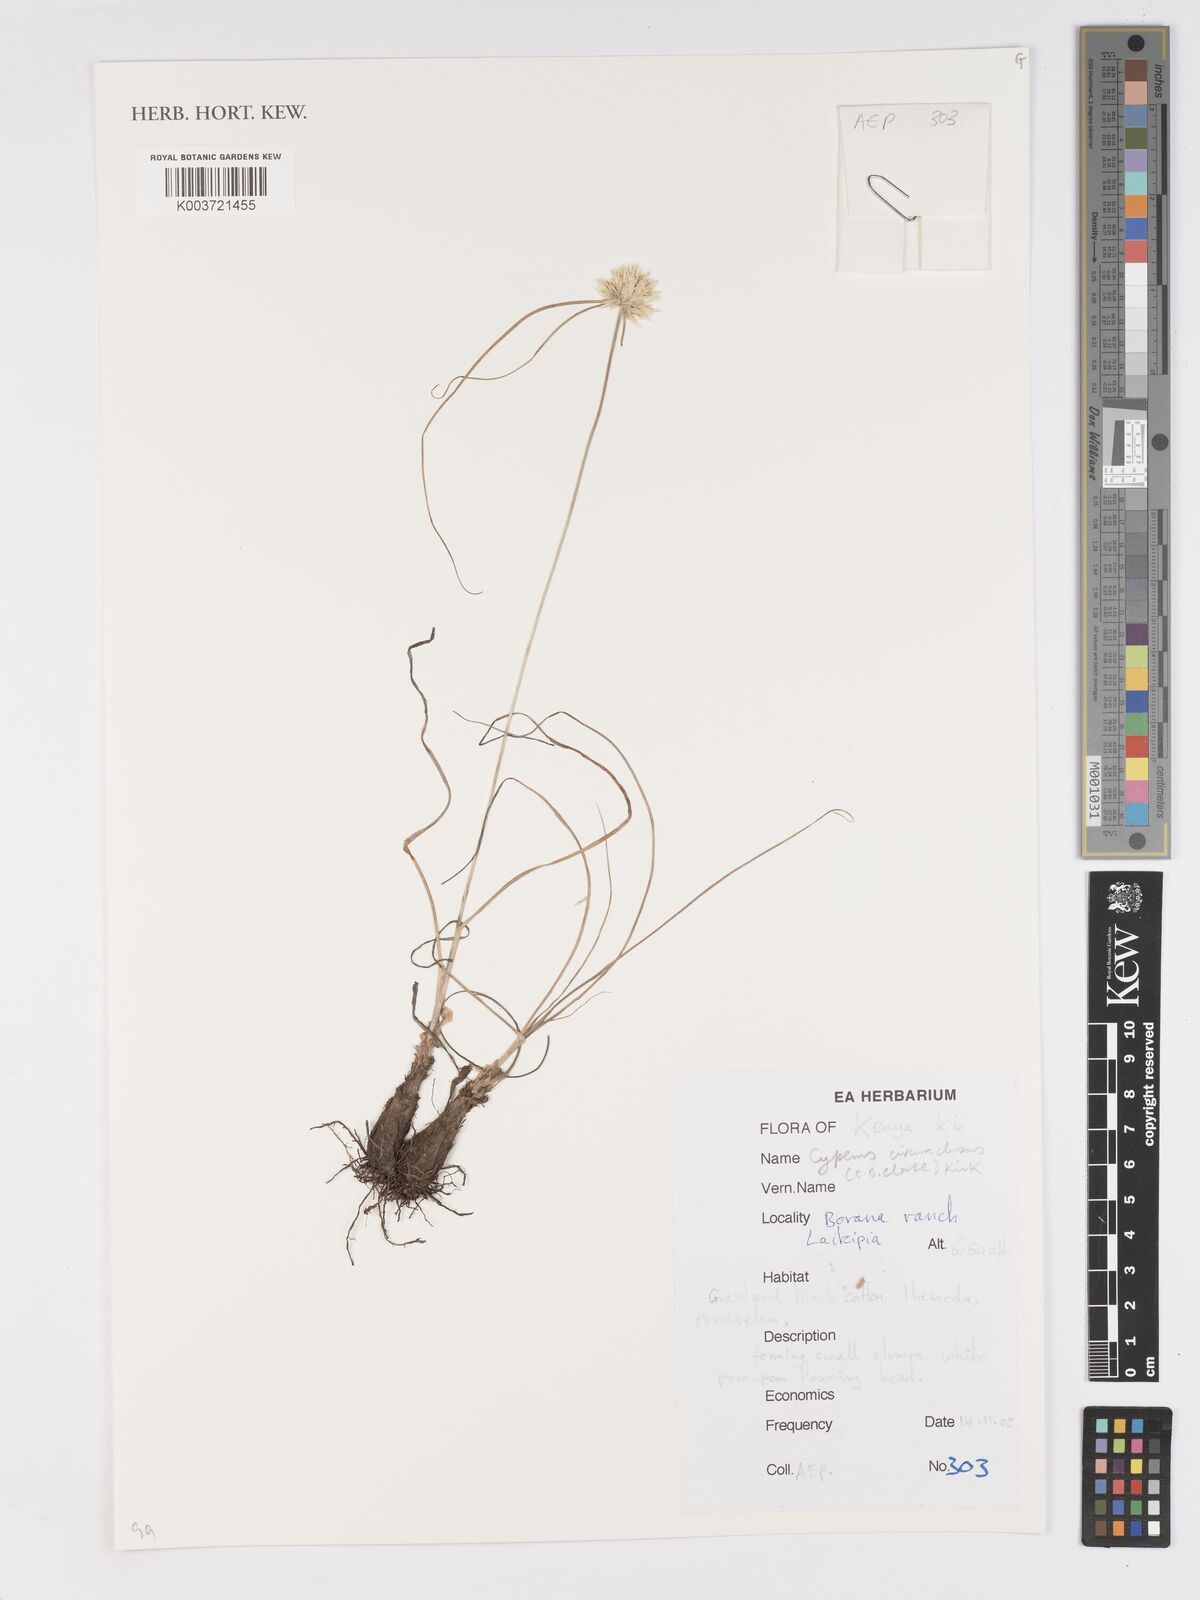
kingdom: Plantae
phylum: Tracheophyta
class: Liliopsida
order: Poales
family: Cyperaceae
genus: Cyperus
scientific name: Cyperus mollipes
